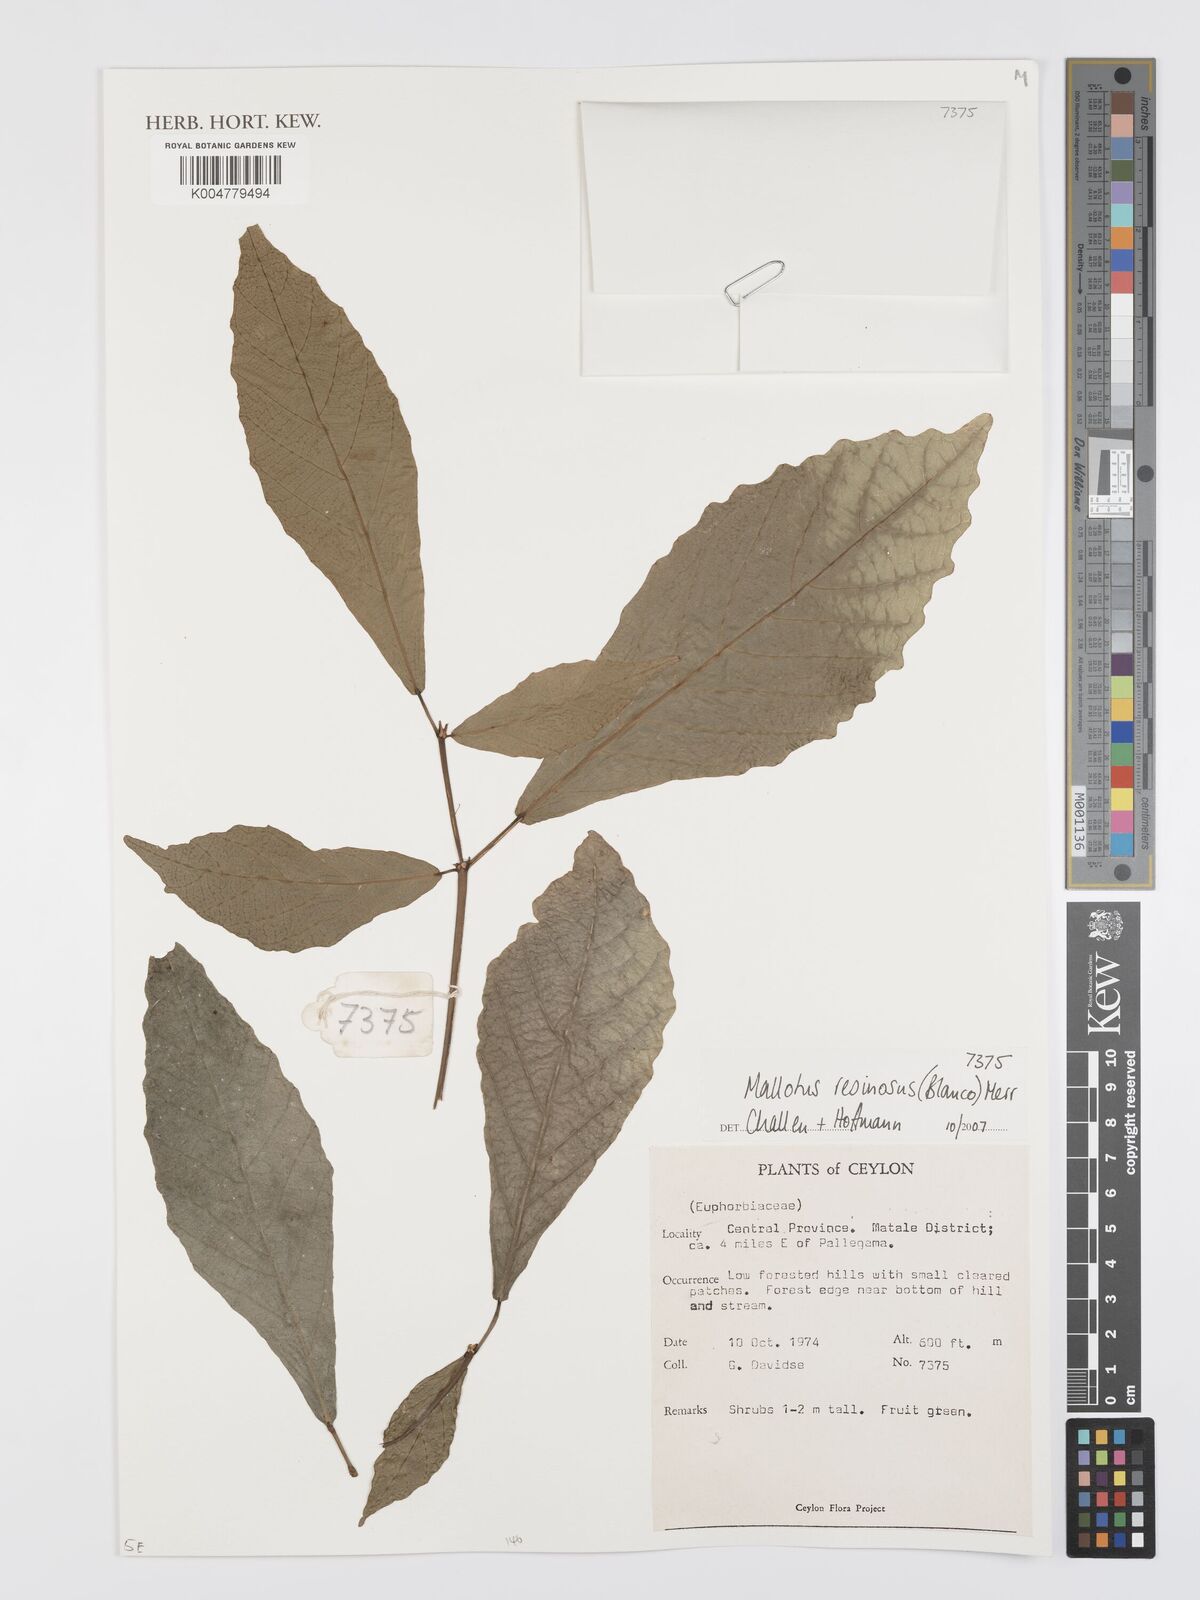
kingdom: Plantae
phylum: Tracheophyta
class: Magnoliopsida
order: Malpighiales
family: Euphorbiaceae
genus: Mallotus
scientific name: Mallotus resinosus
